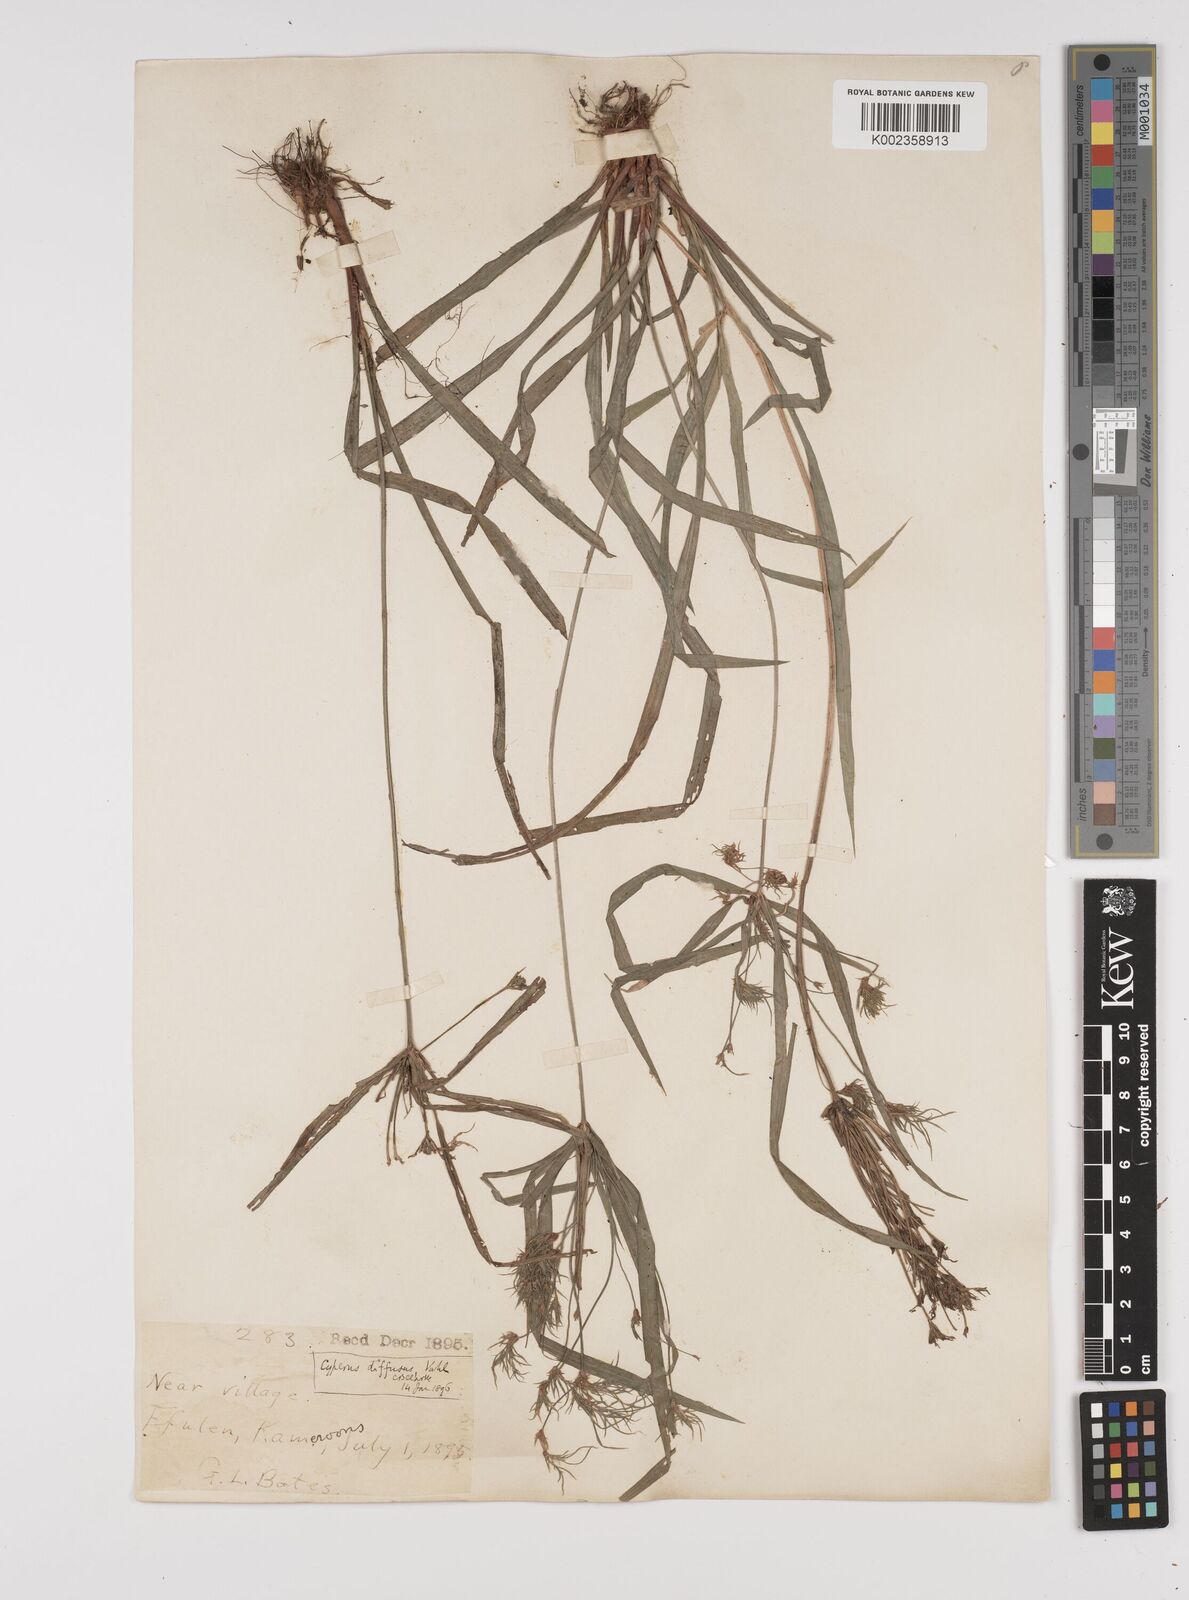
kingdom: Plantae
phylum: Tracheophyta
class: Liliopsida
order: Poales
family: Cyperaceae
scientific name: Cyperaceae
